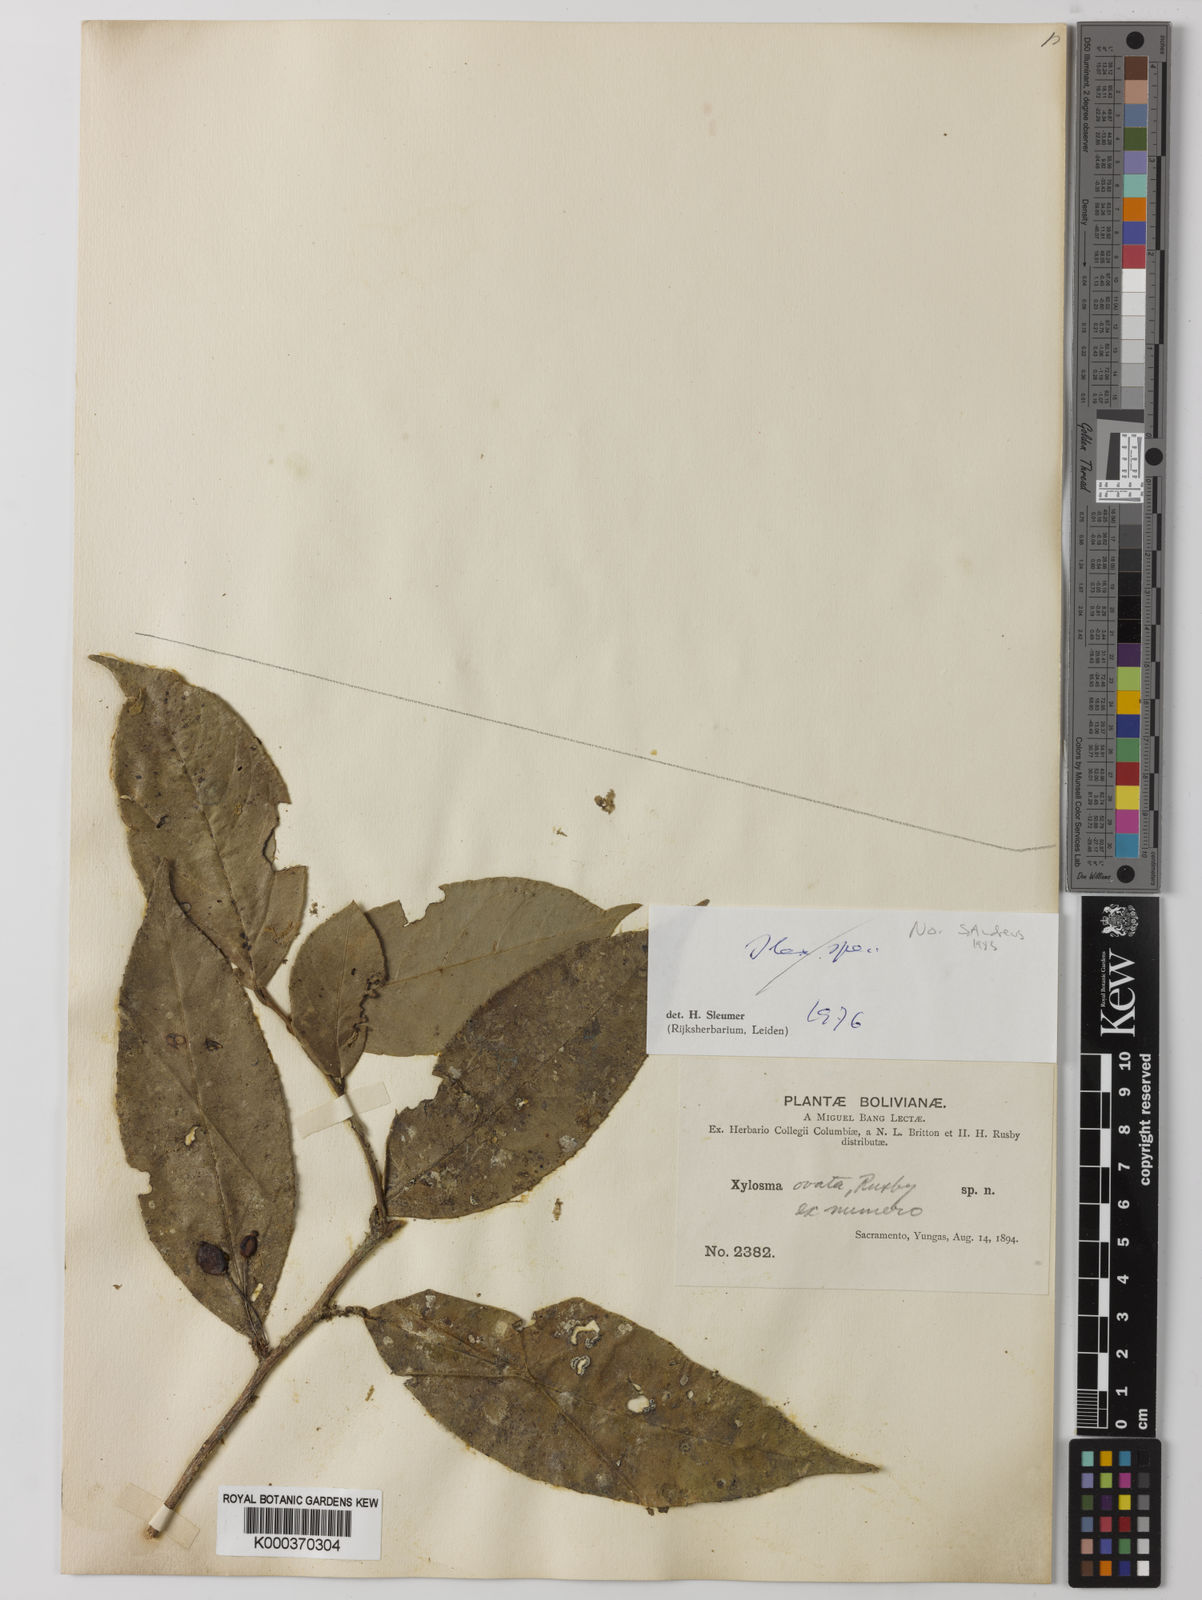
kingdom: Plantae
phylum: Tracheophyta
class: Magnoliopsida
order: Malpighiales
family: Salicaceae
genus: Xylosma
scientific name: Xylosma rusbyana
